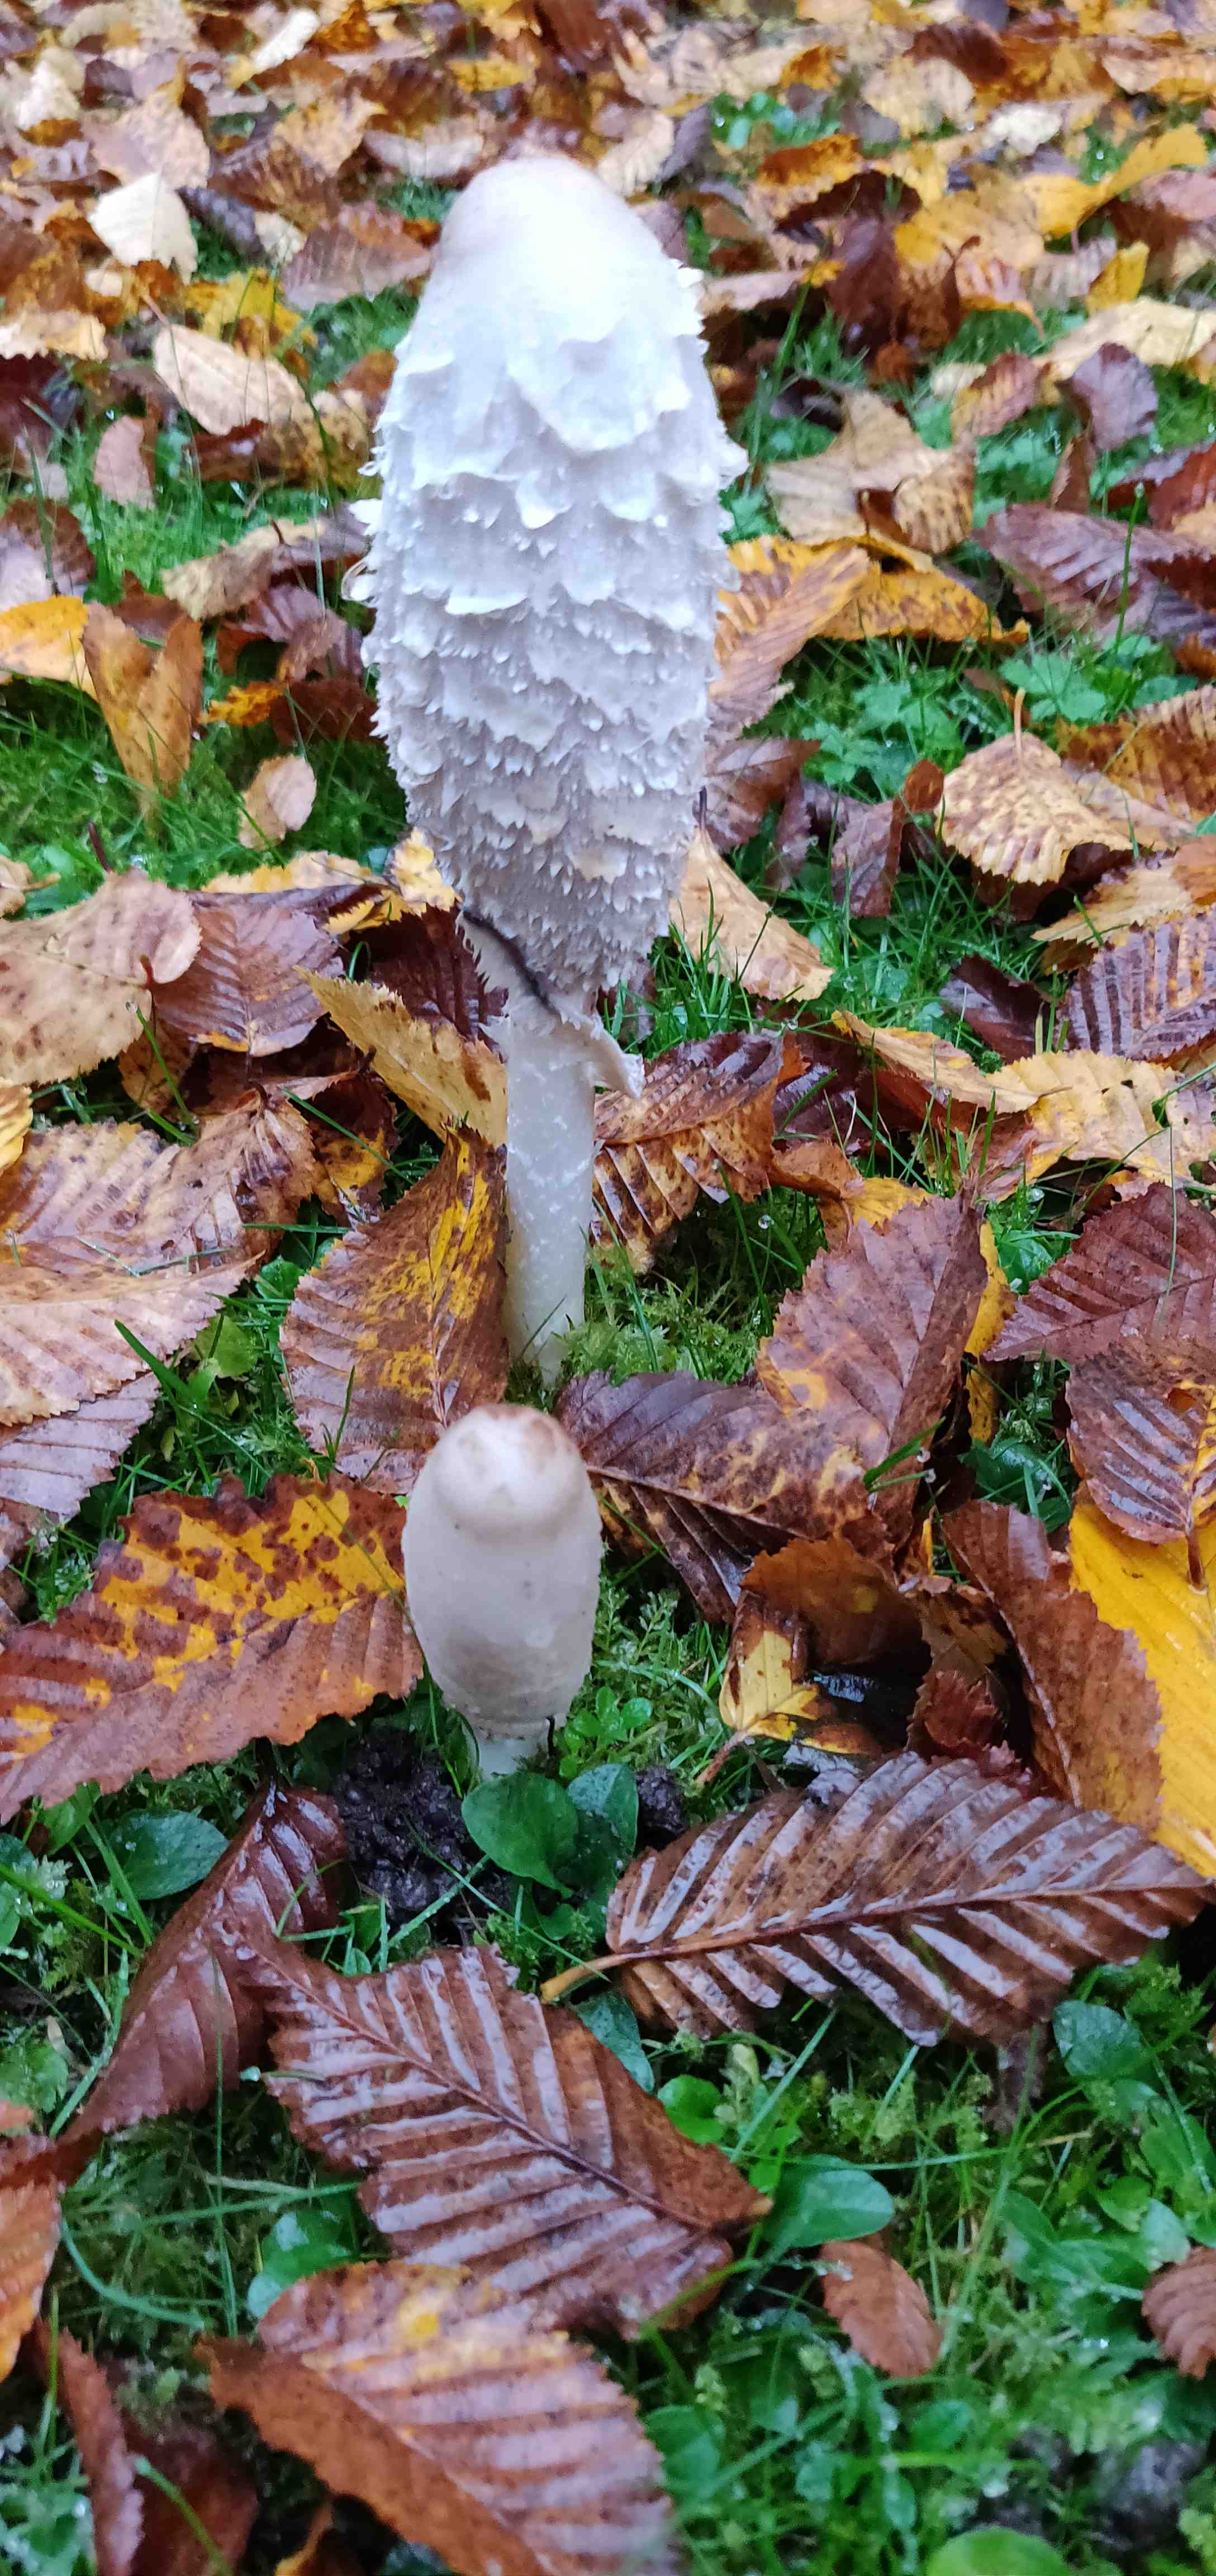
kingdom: Fungi
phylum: Basidiomycota
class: Agaricomycetes
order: Agaricales
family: Agaricaceae
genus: Coprinus
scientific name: Coprinus comatus
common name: stor parykhat
